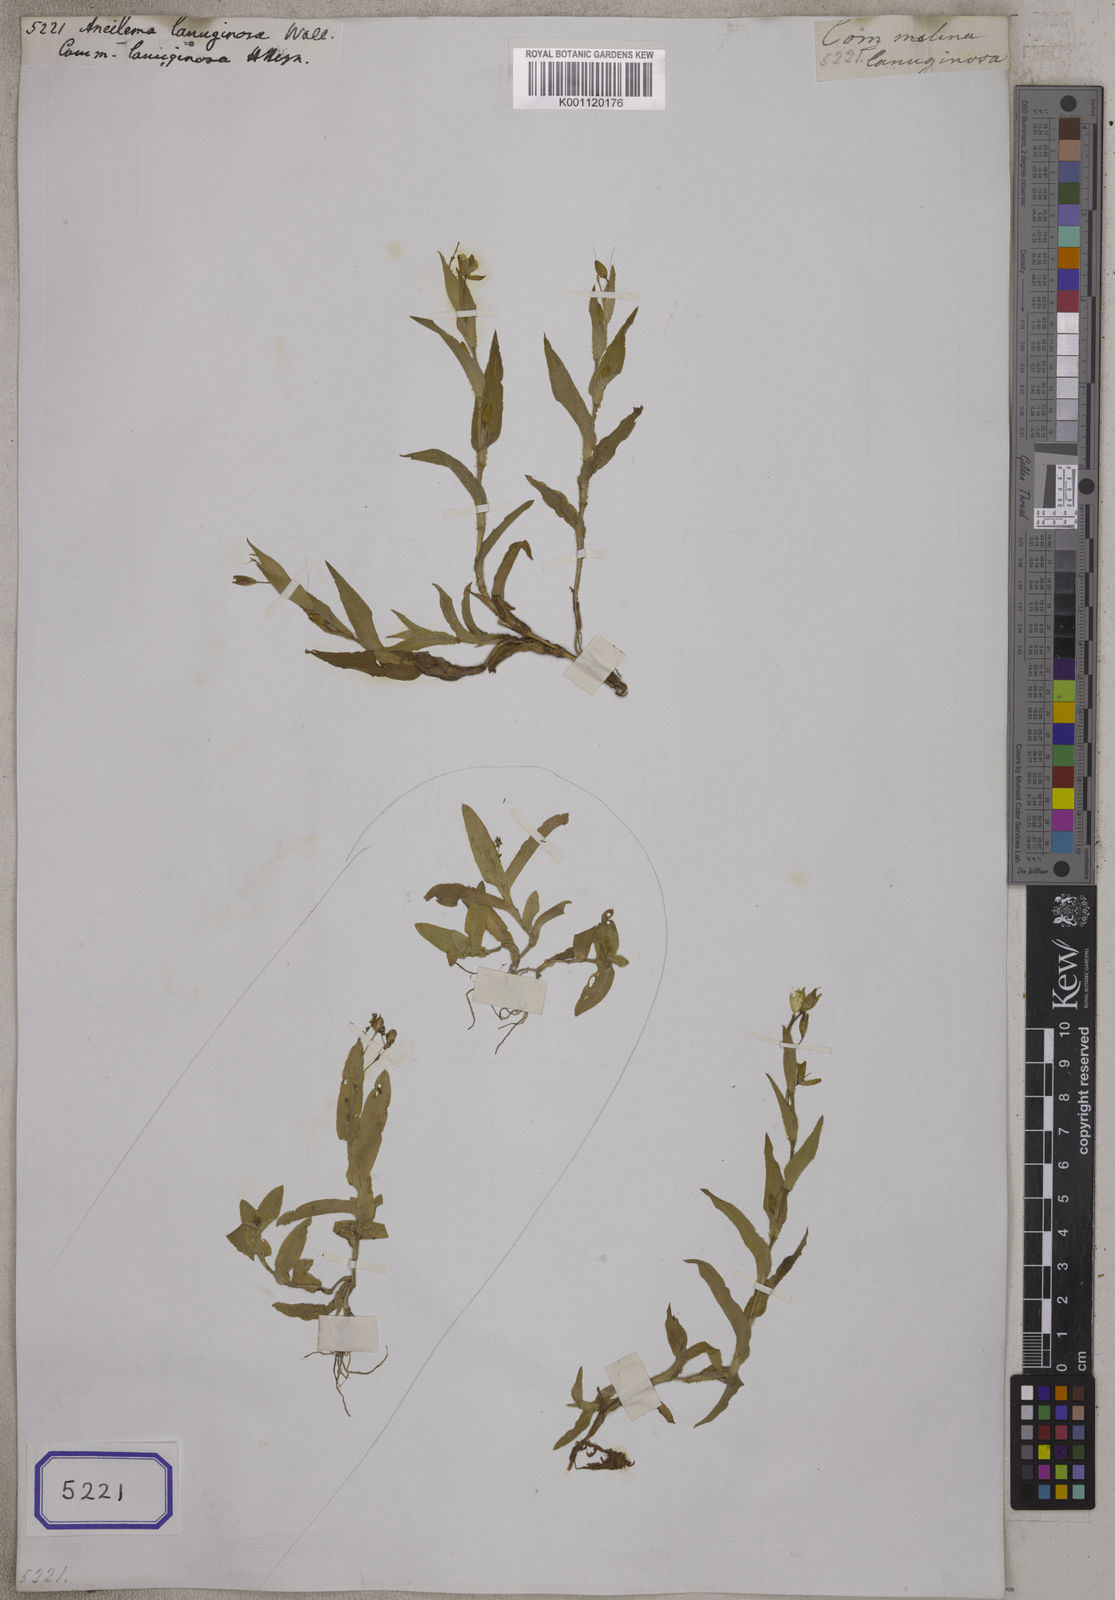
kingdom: Plantae
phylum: Tracheophyta
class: Liliopsida
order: Commelinales
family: Commelinaceae
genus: Aneilema
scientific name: Aneilema
